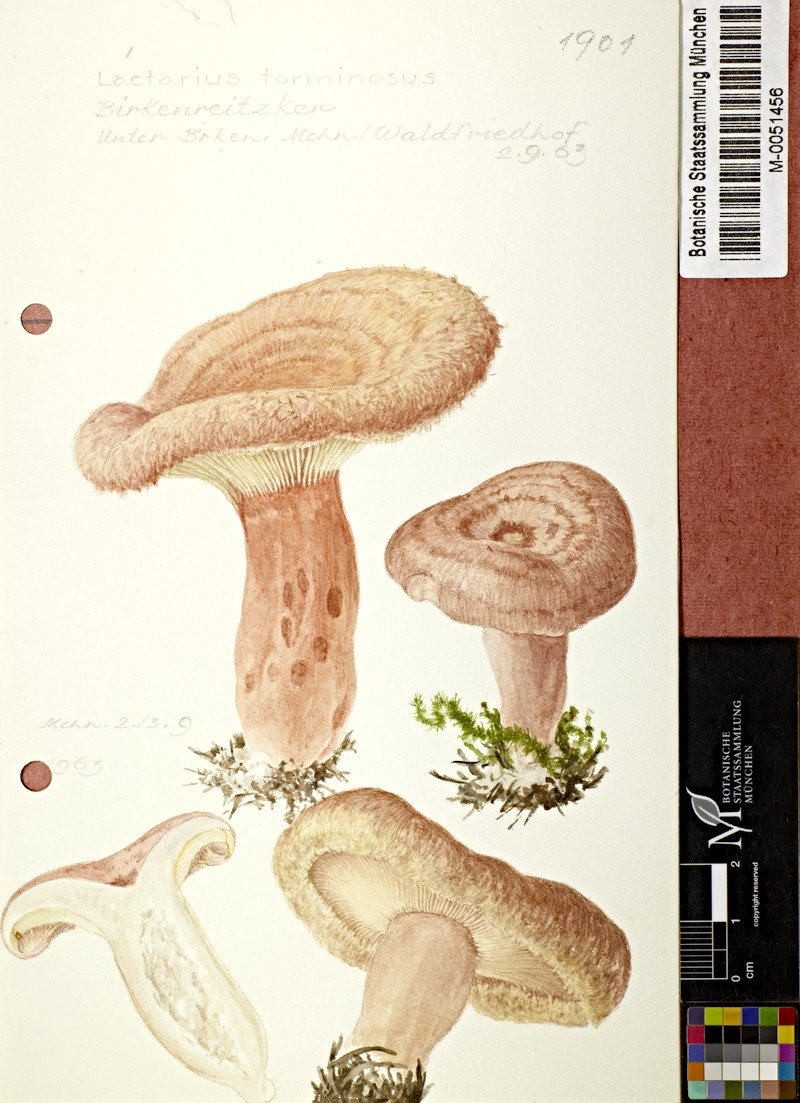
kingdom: Fungi
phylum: Basidiomycota
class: Agaricomycetes
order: Russulales
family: Russulaceae
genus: Lactarius
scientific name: Lactarius torminosus
